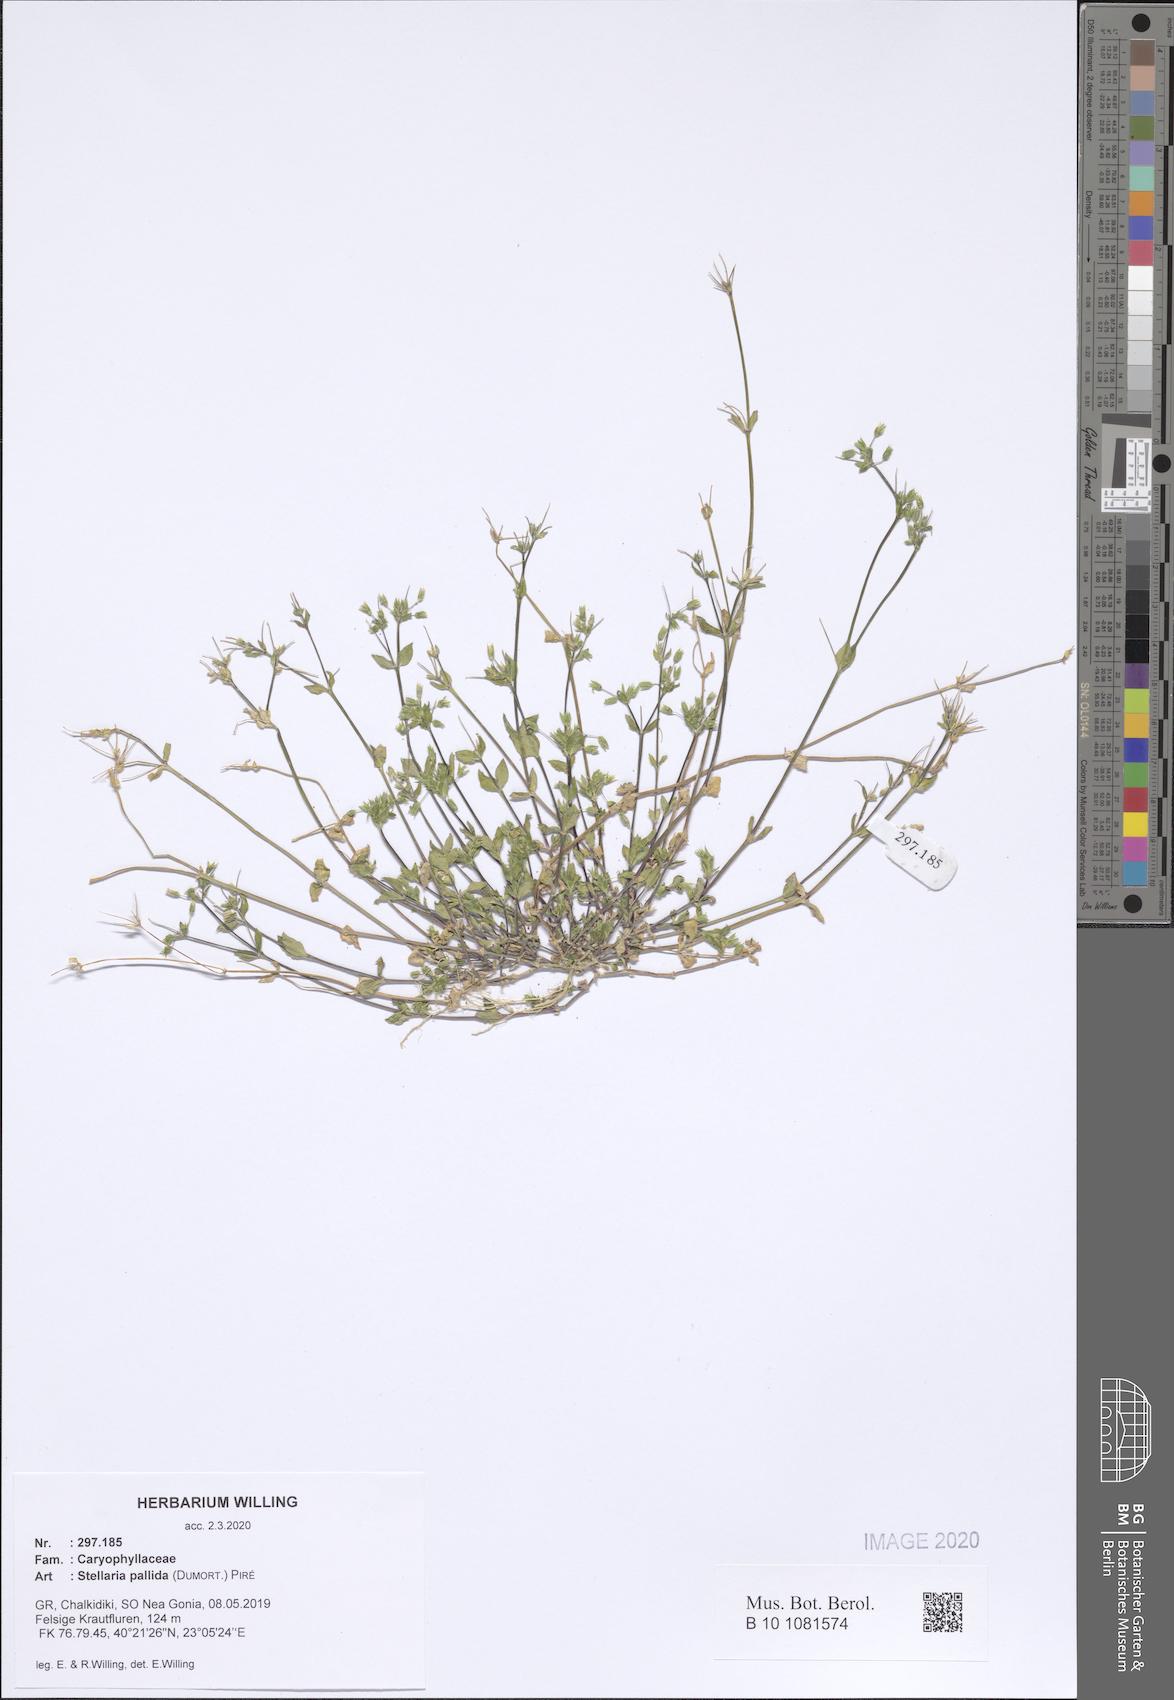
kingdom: Plantae
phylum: Tracheophyta
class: Magnoliopsida
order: Caryophyllales
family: Caryophyllaceae
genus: Stellaria
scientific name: Stellaria apetala
